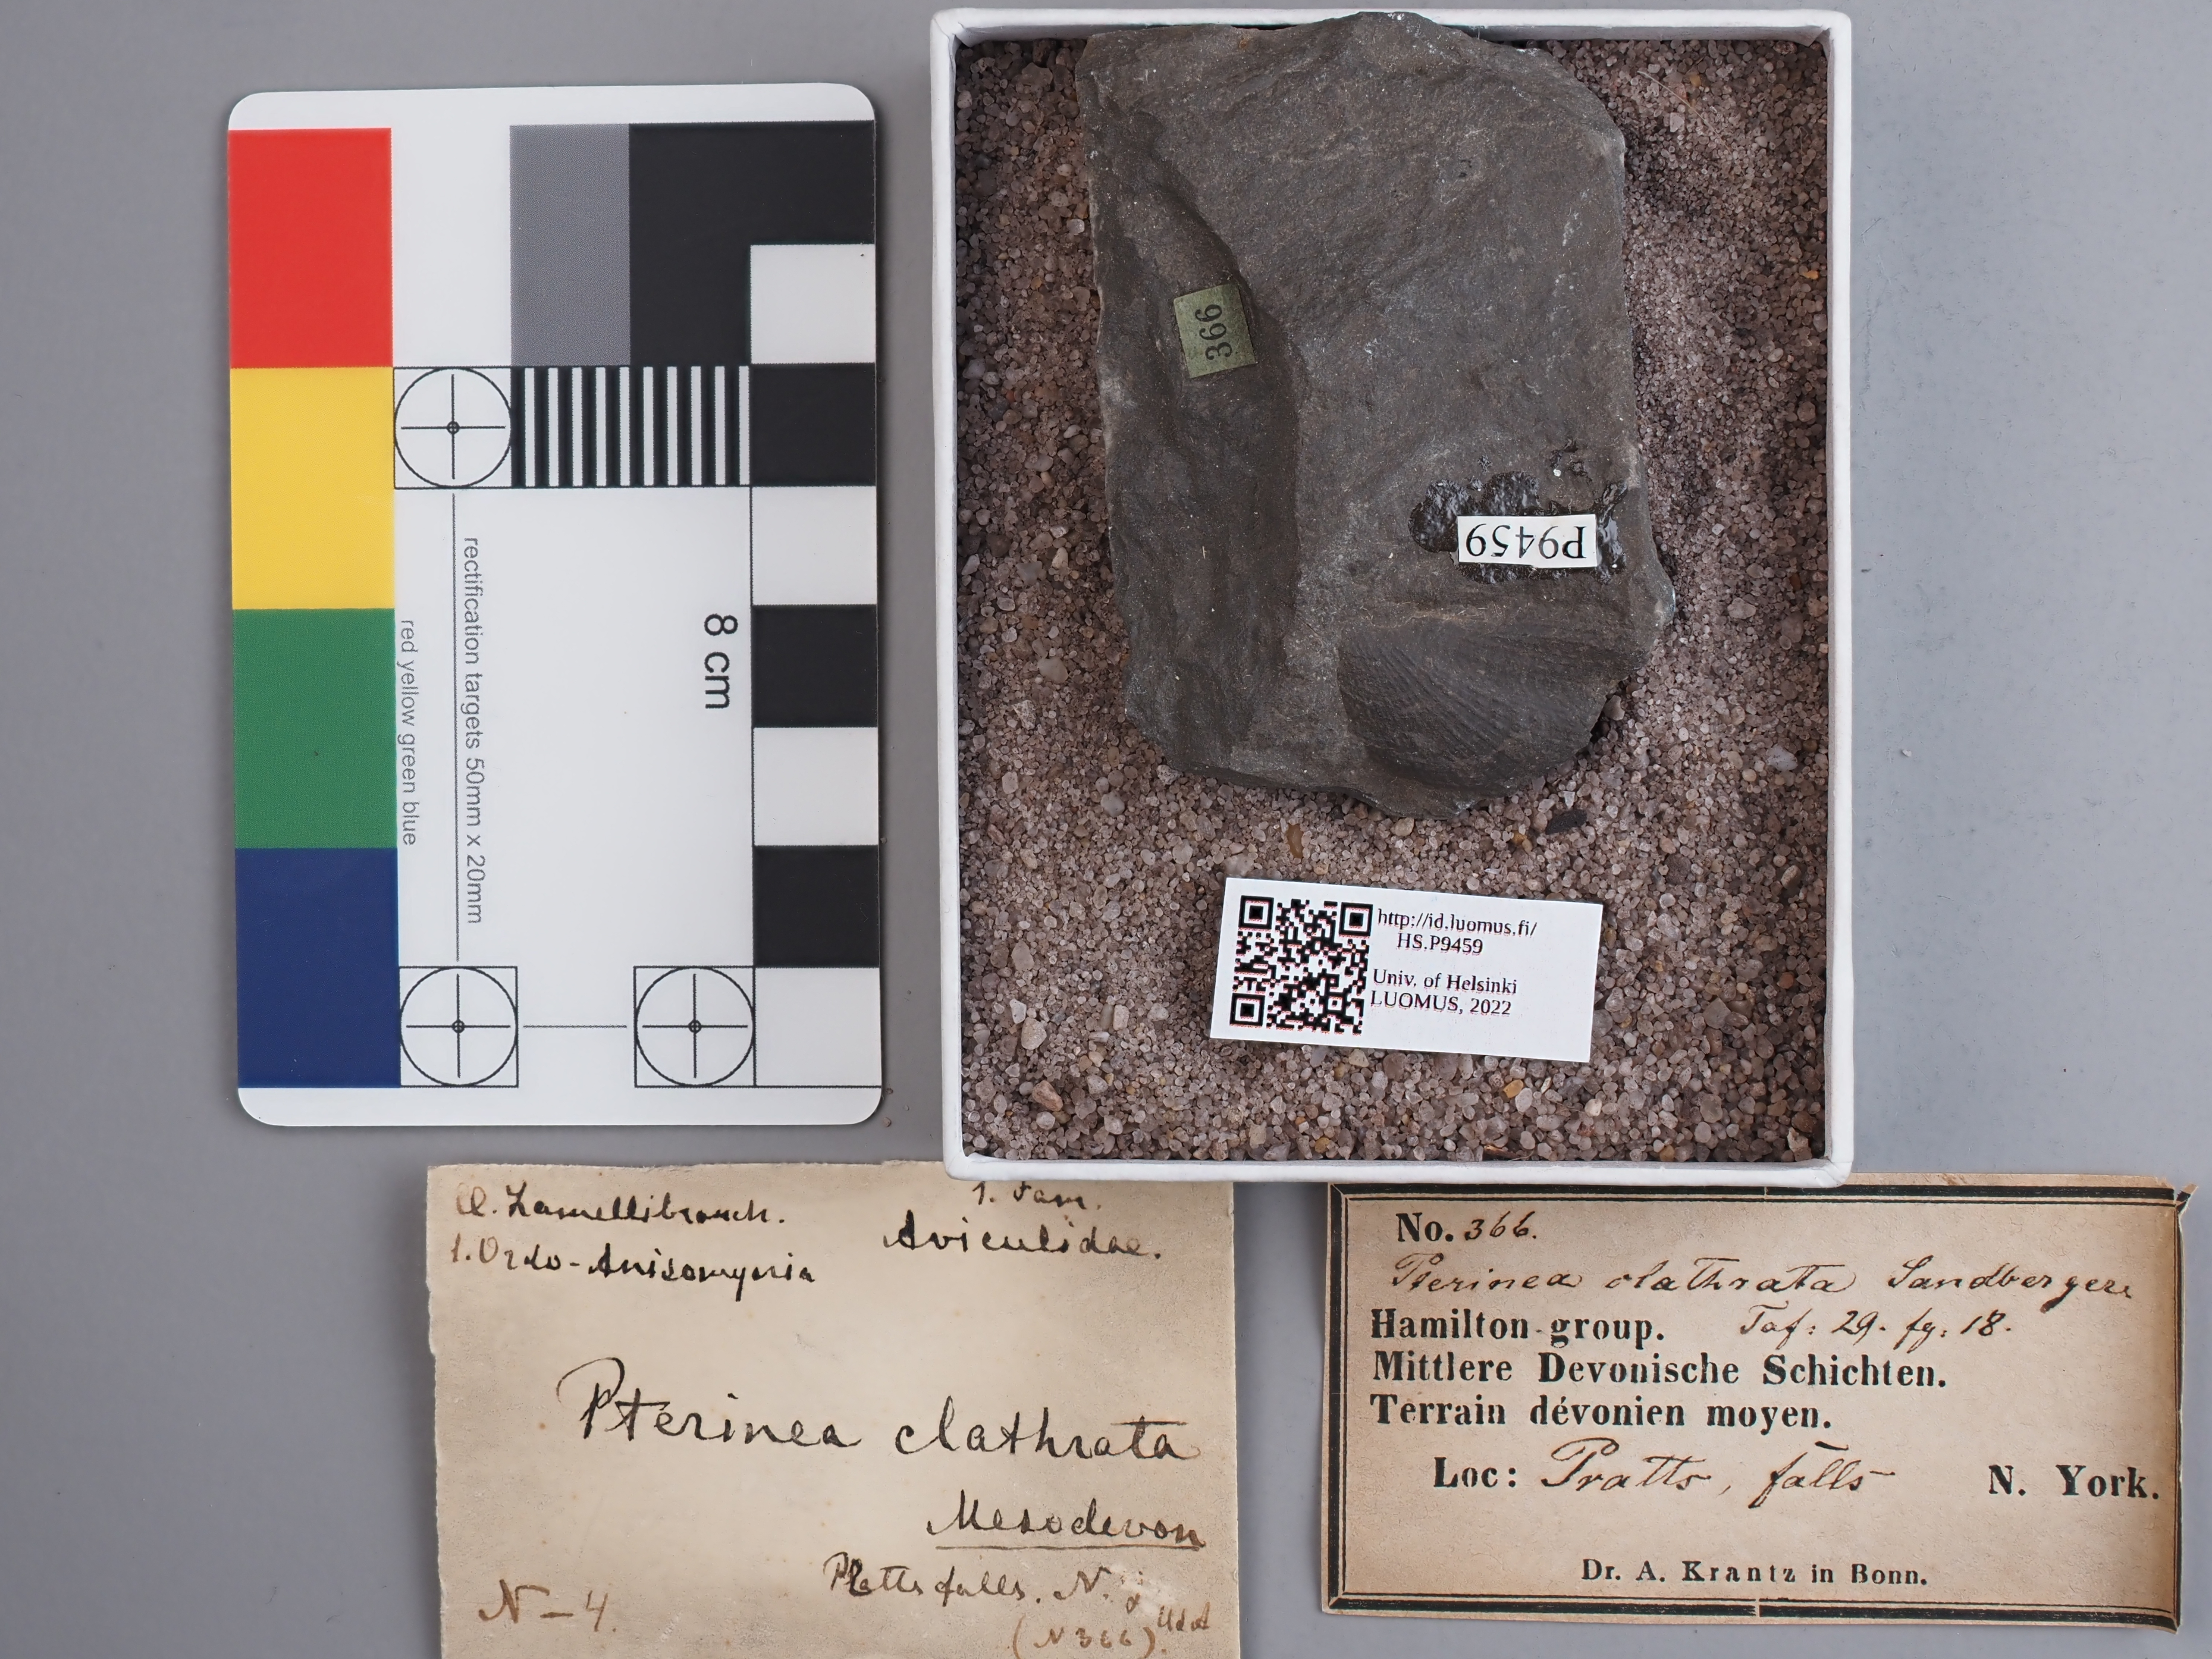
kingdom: Animalia
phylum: Mollusca
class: Bivalvia
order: Ostreida
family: Pterineidae
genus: Pterinea
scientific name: Pterinea
